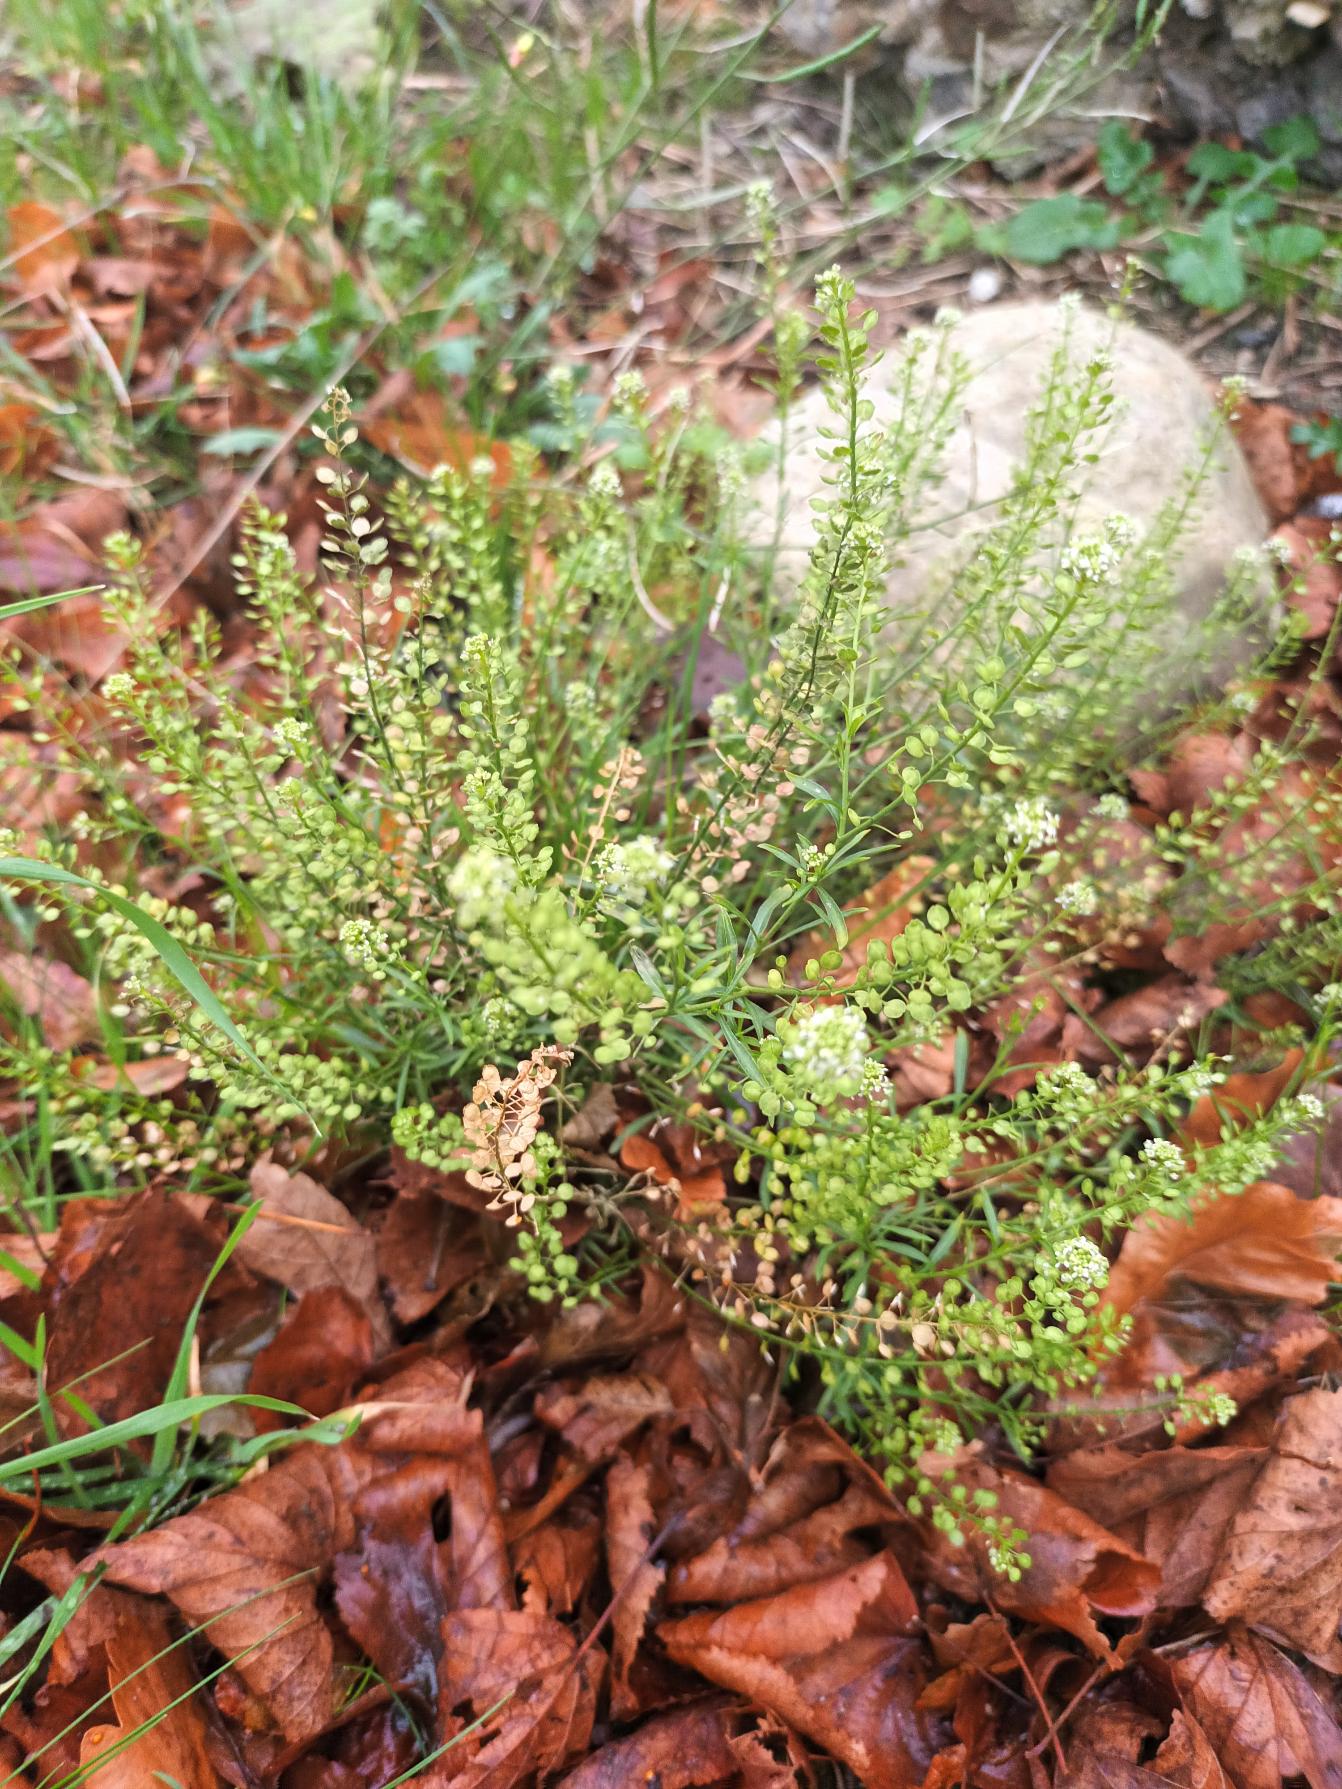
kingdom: Plantae
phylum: Tracheophyta
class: Magnoliopsida
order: Brassicales
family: Brassicaceae
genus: Lepidium
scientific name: Lepidium densiflorum
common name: Vingefrøet karse
